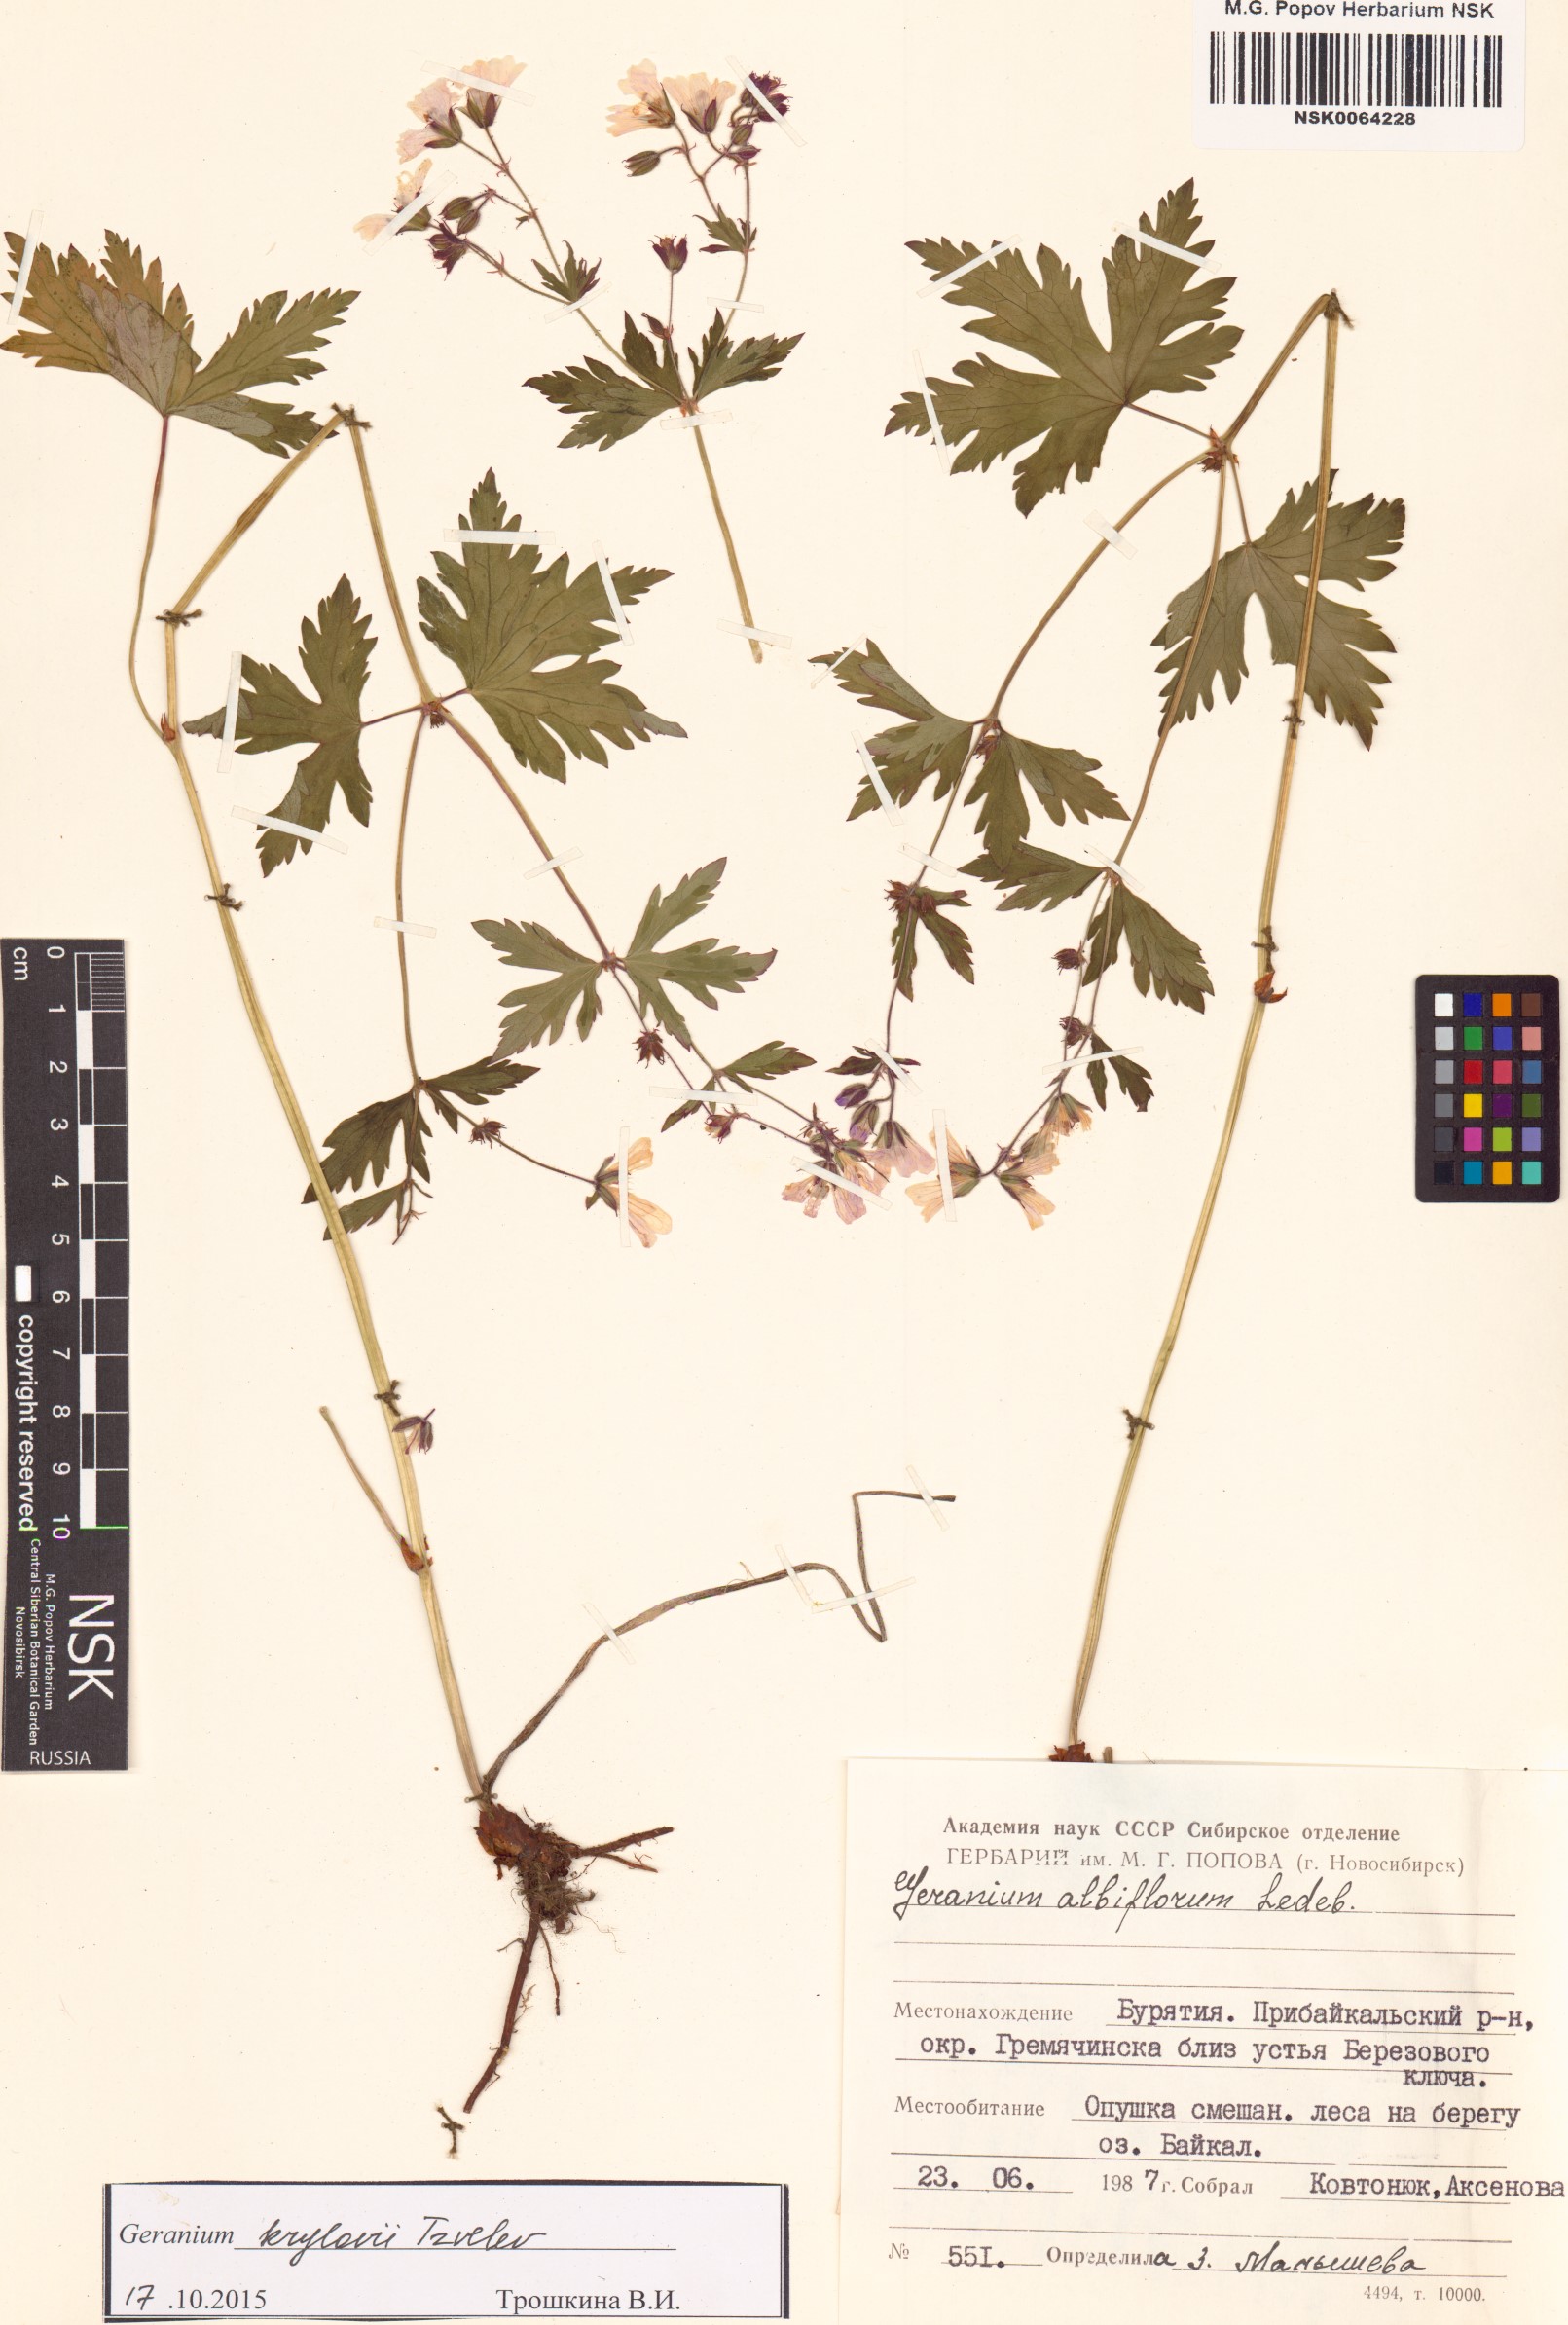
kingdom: Plantae
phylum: Tracheophyta
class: Magnoliopsida
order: Geraniales
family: Geraniaceae
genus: Geranium
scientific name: Geranium sylvaticum
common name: Wood crane's-bill
